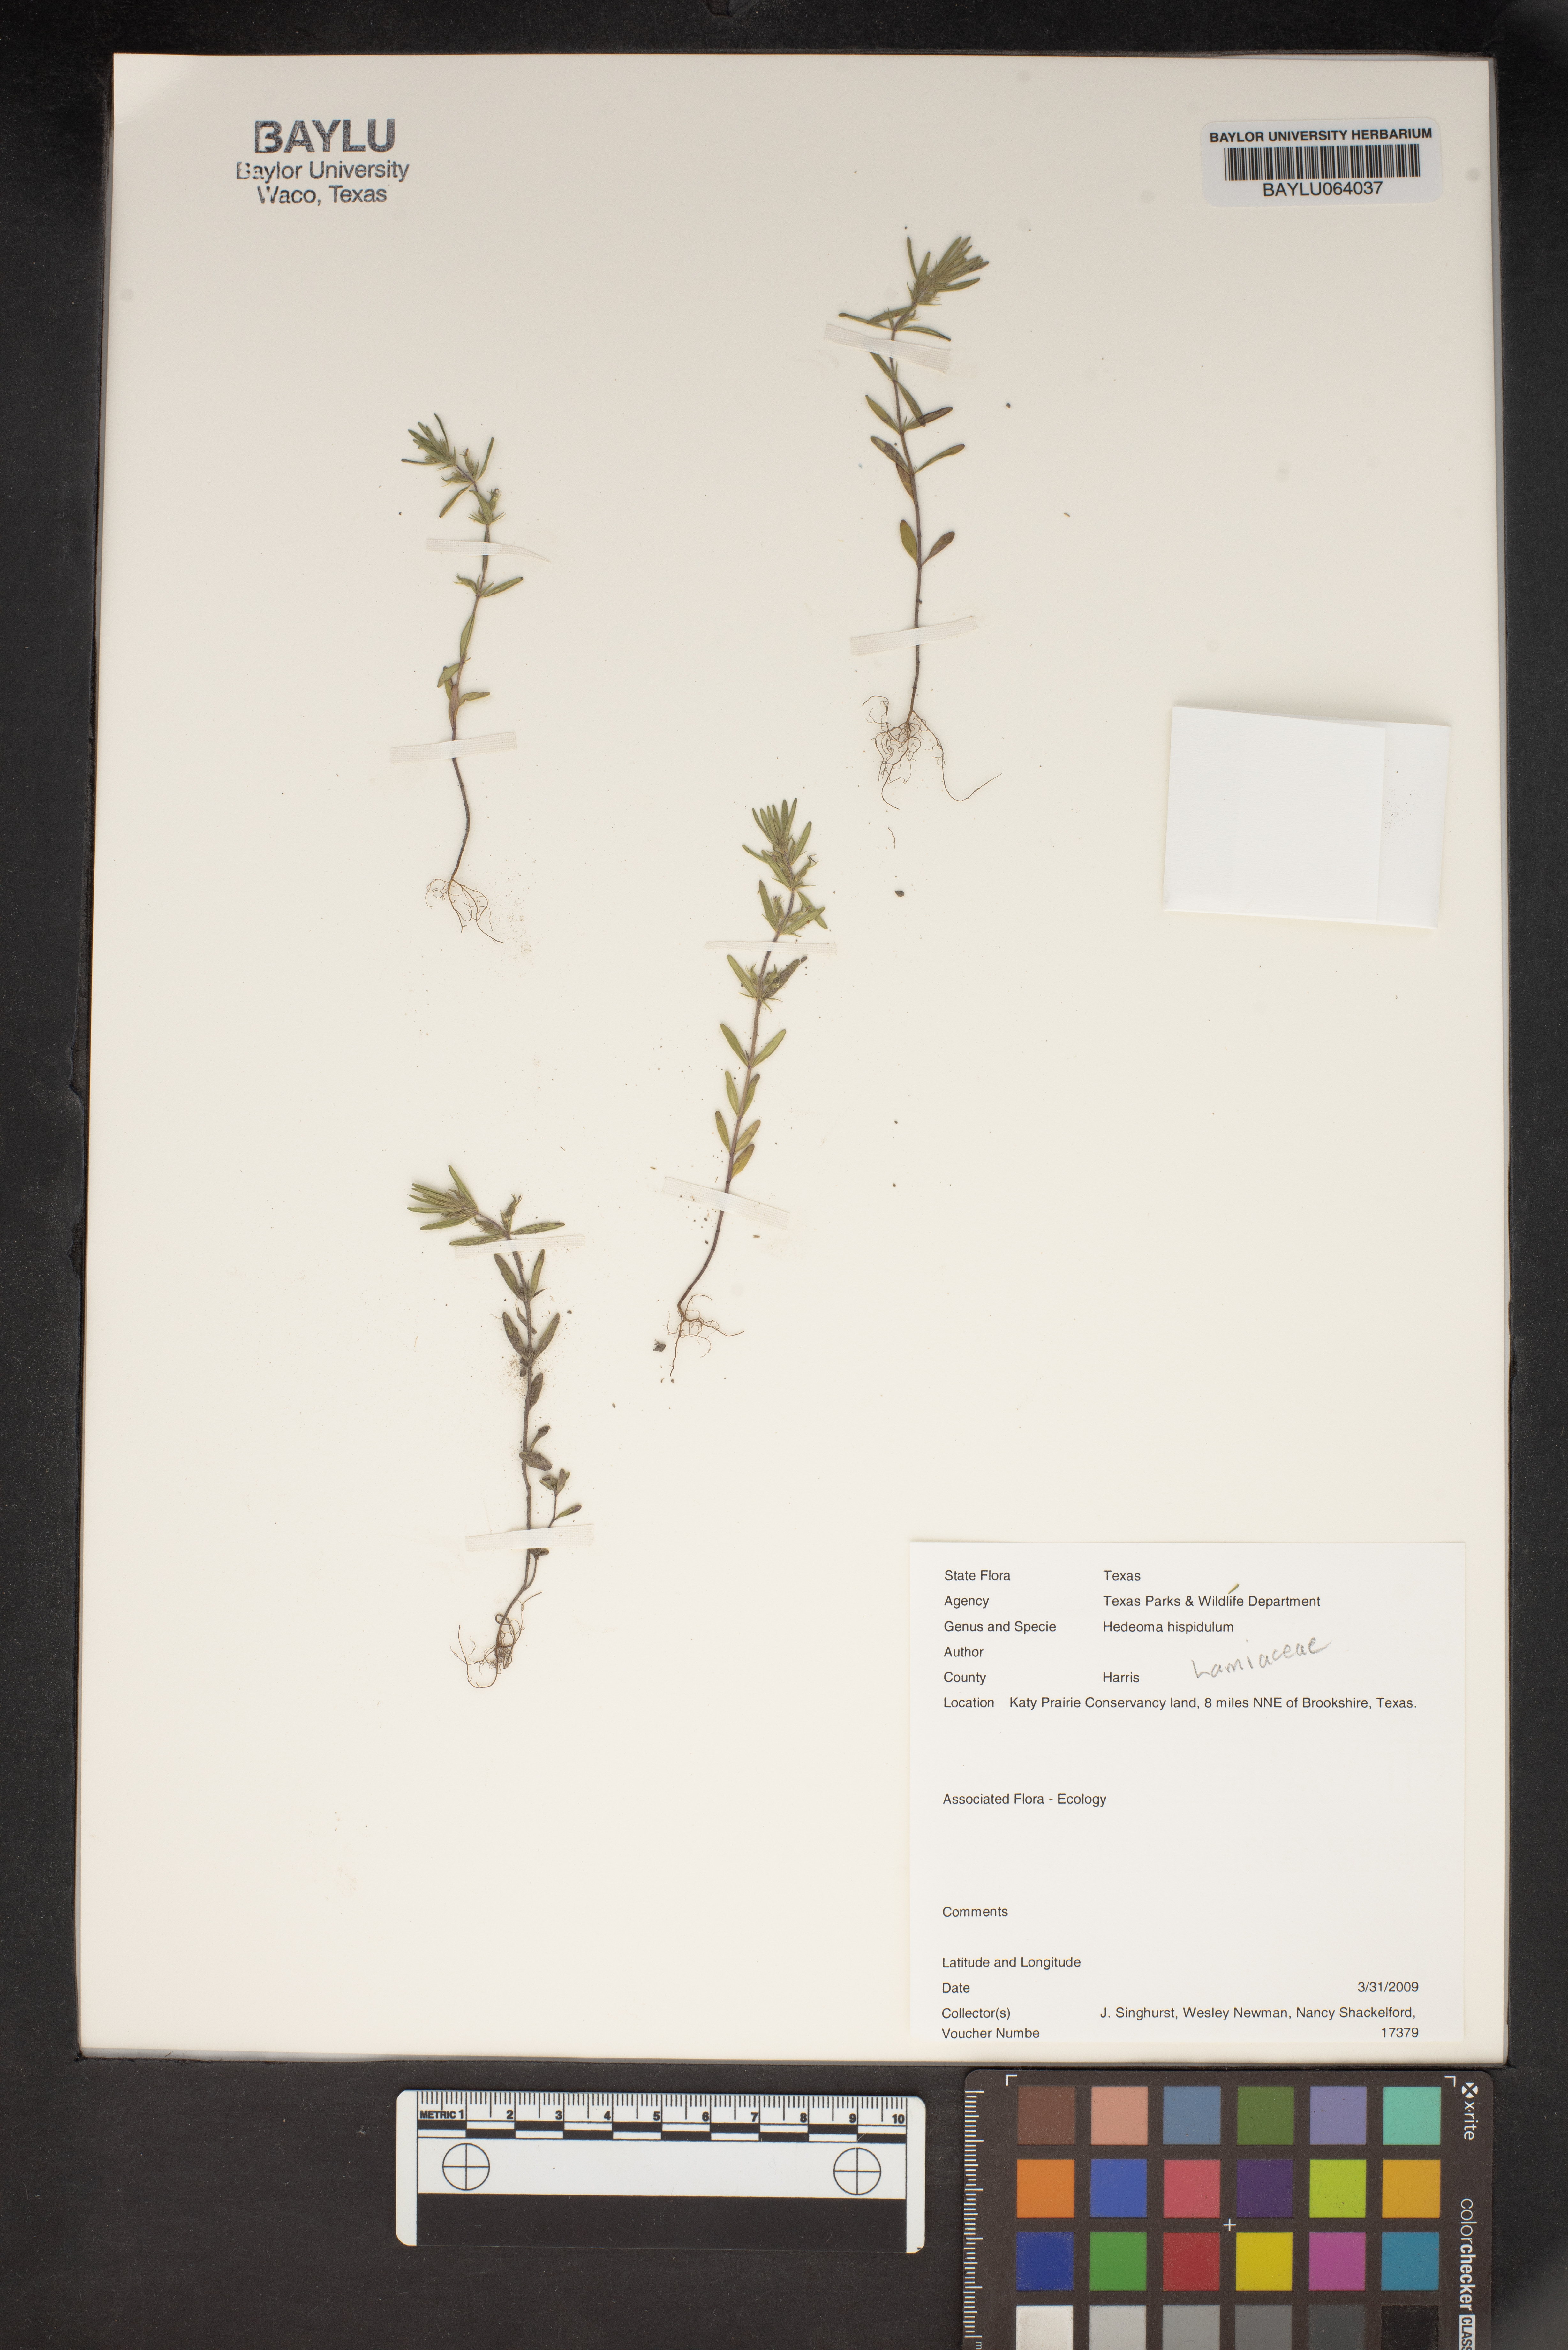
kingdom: Plantae
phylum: Tracheophyta
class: Magnoliopsida
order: Lamiales
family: Lamiaceae
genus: Hedeoma
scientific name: Hedeoma hispida
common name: Mock pennyroyal
